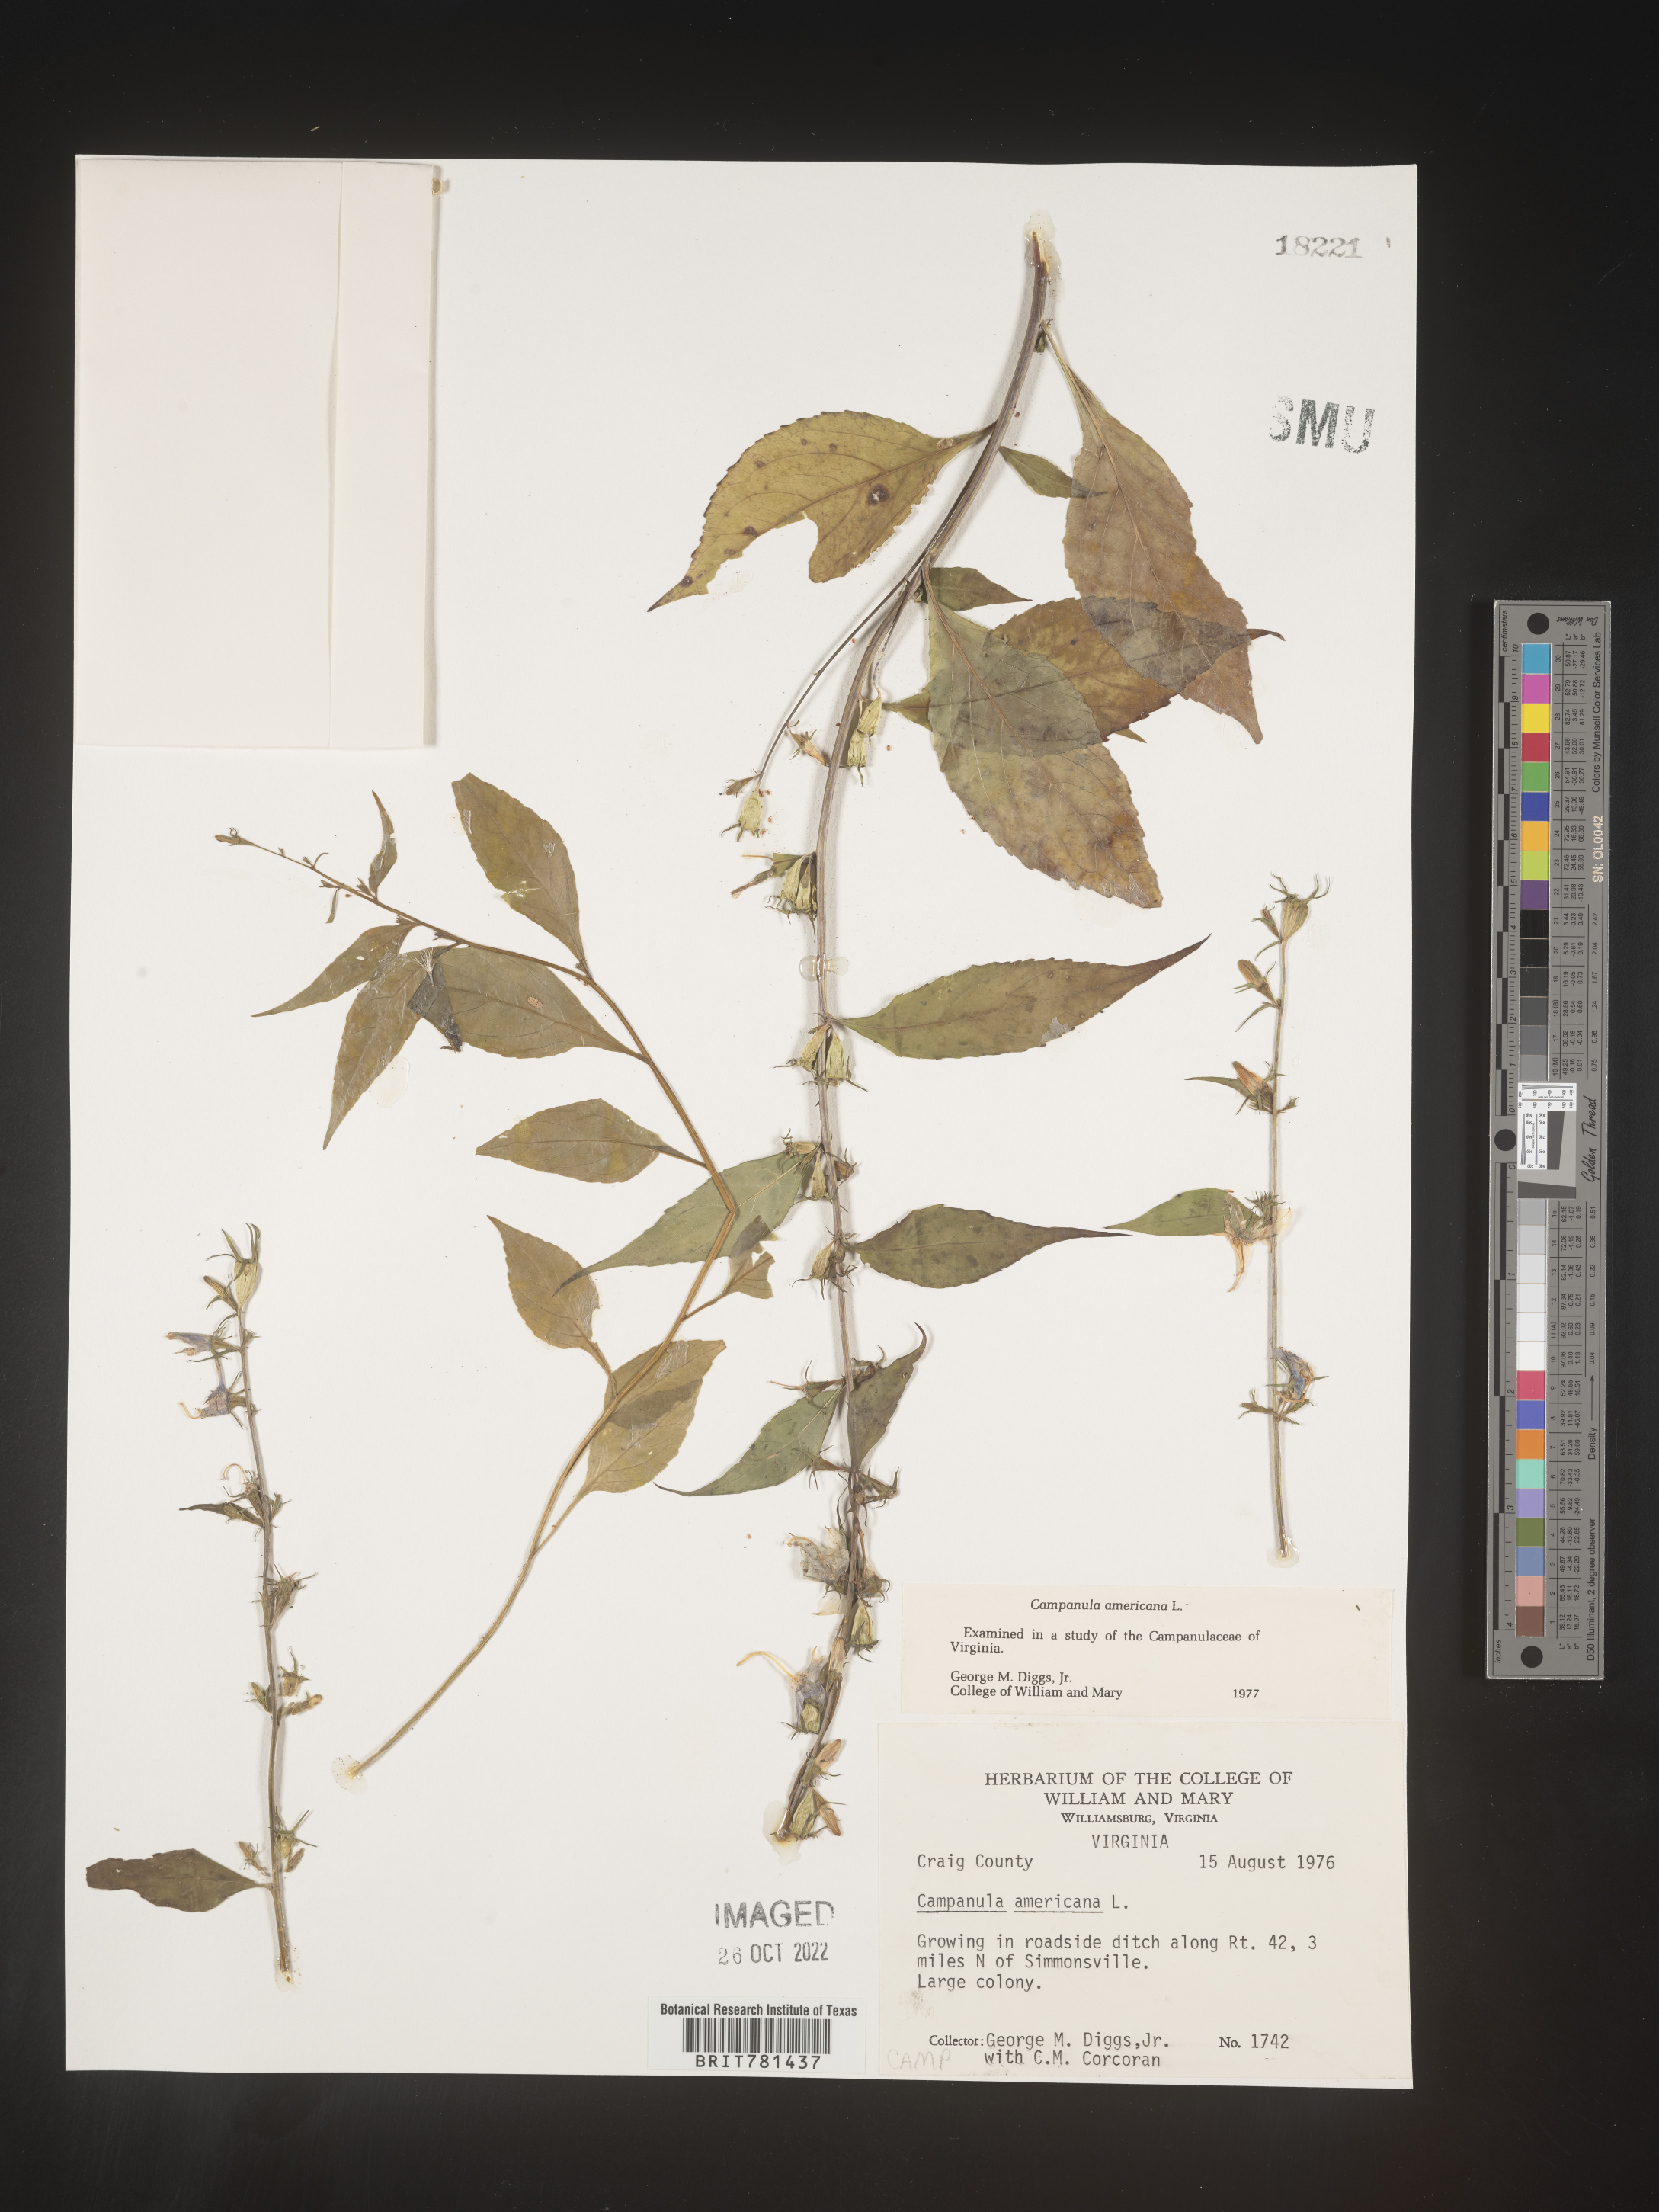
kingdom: Plantae
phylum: Tracheophyta
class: Magnoliopsida
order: Asterales
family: Campanulaceae
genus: Campanula
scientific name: Campanula americana
